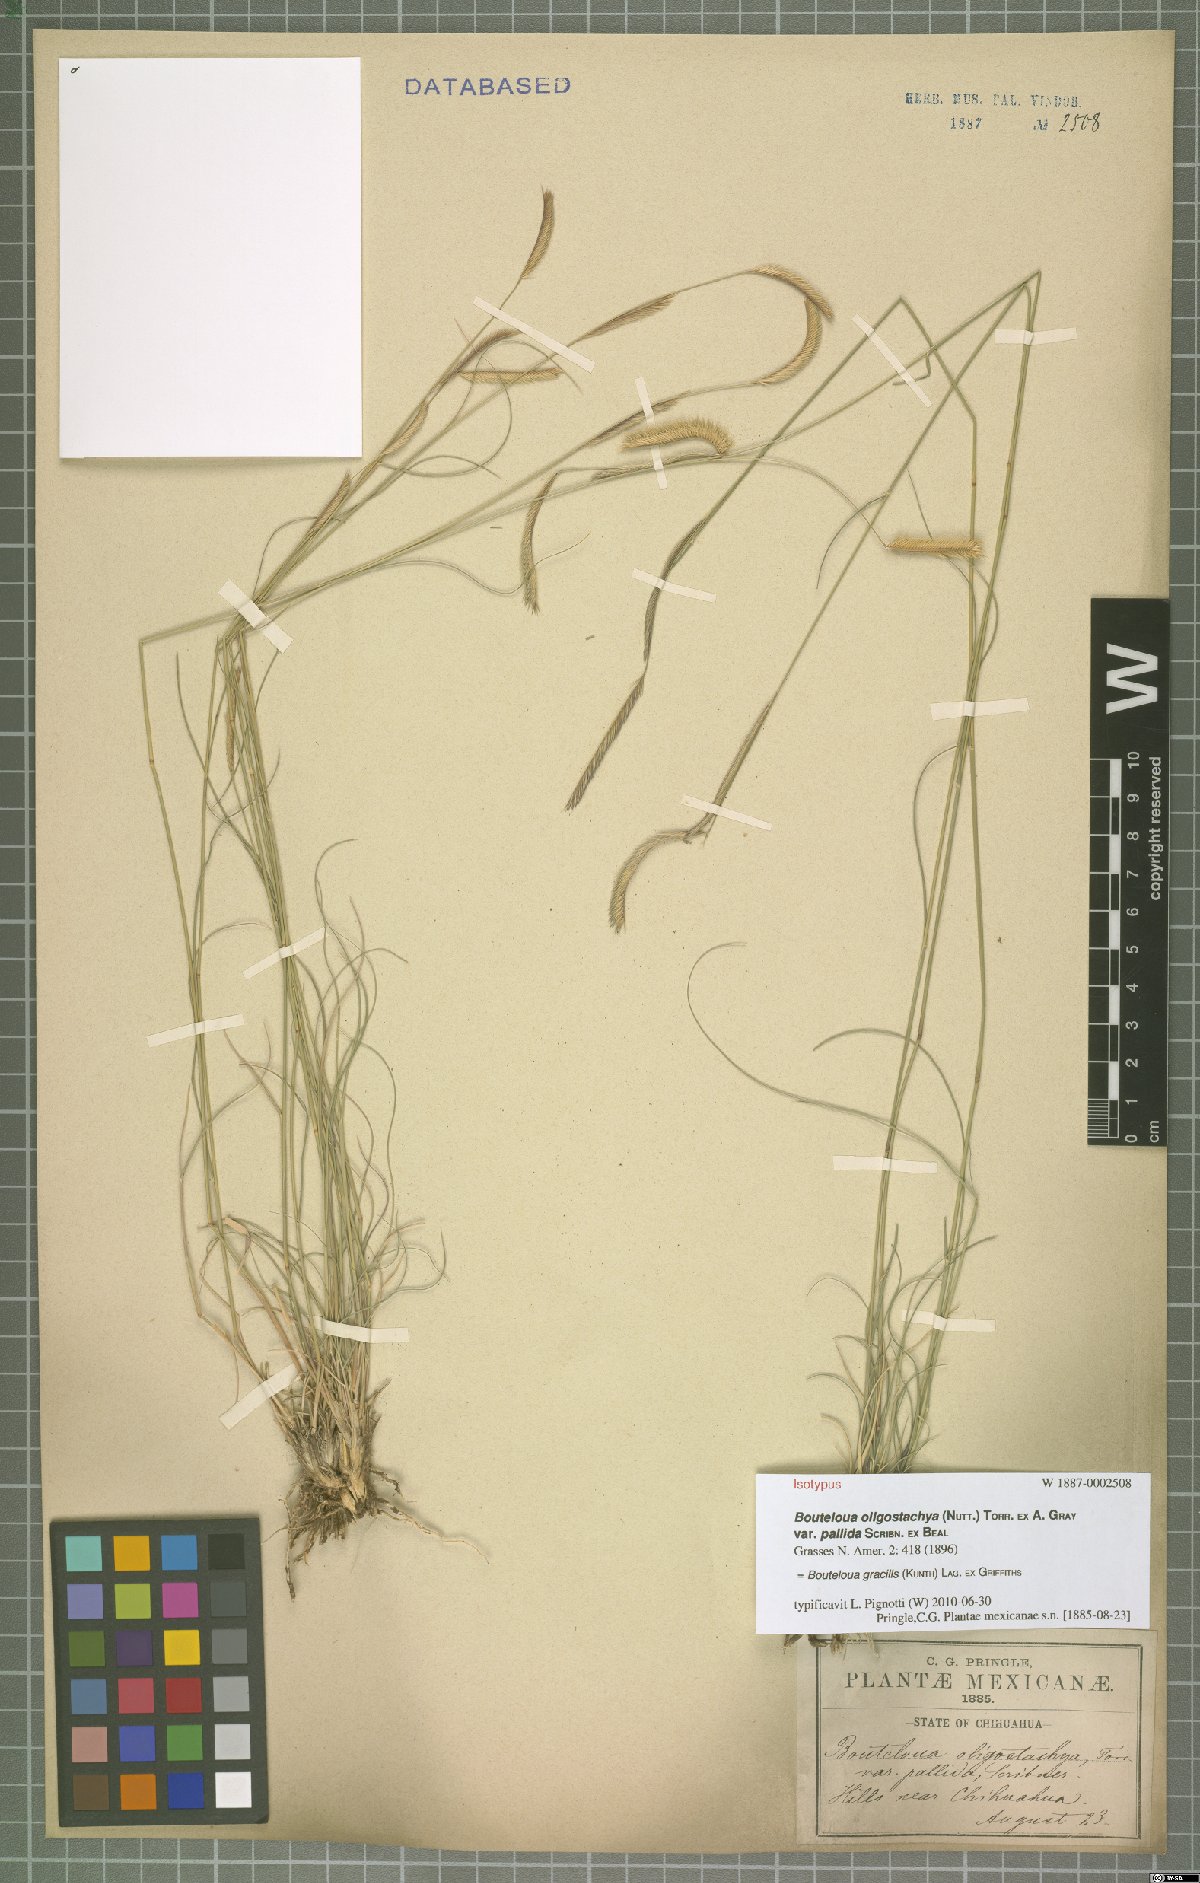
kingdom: Plantae
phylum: Tracheophyta
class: Liliopsida
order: Poales
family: Poaceae
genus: Bouteloua
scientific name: Bouteloua gracilis
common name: Blue grama
